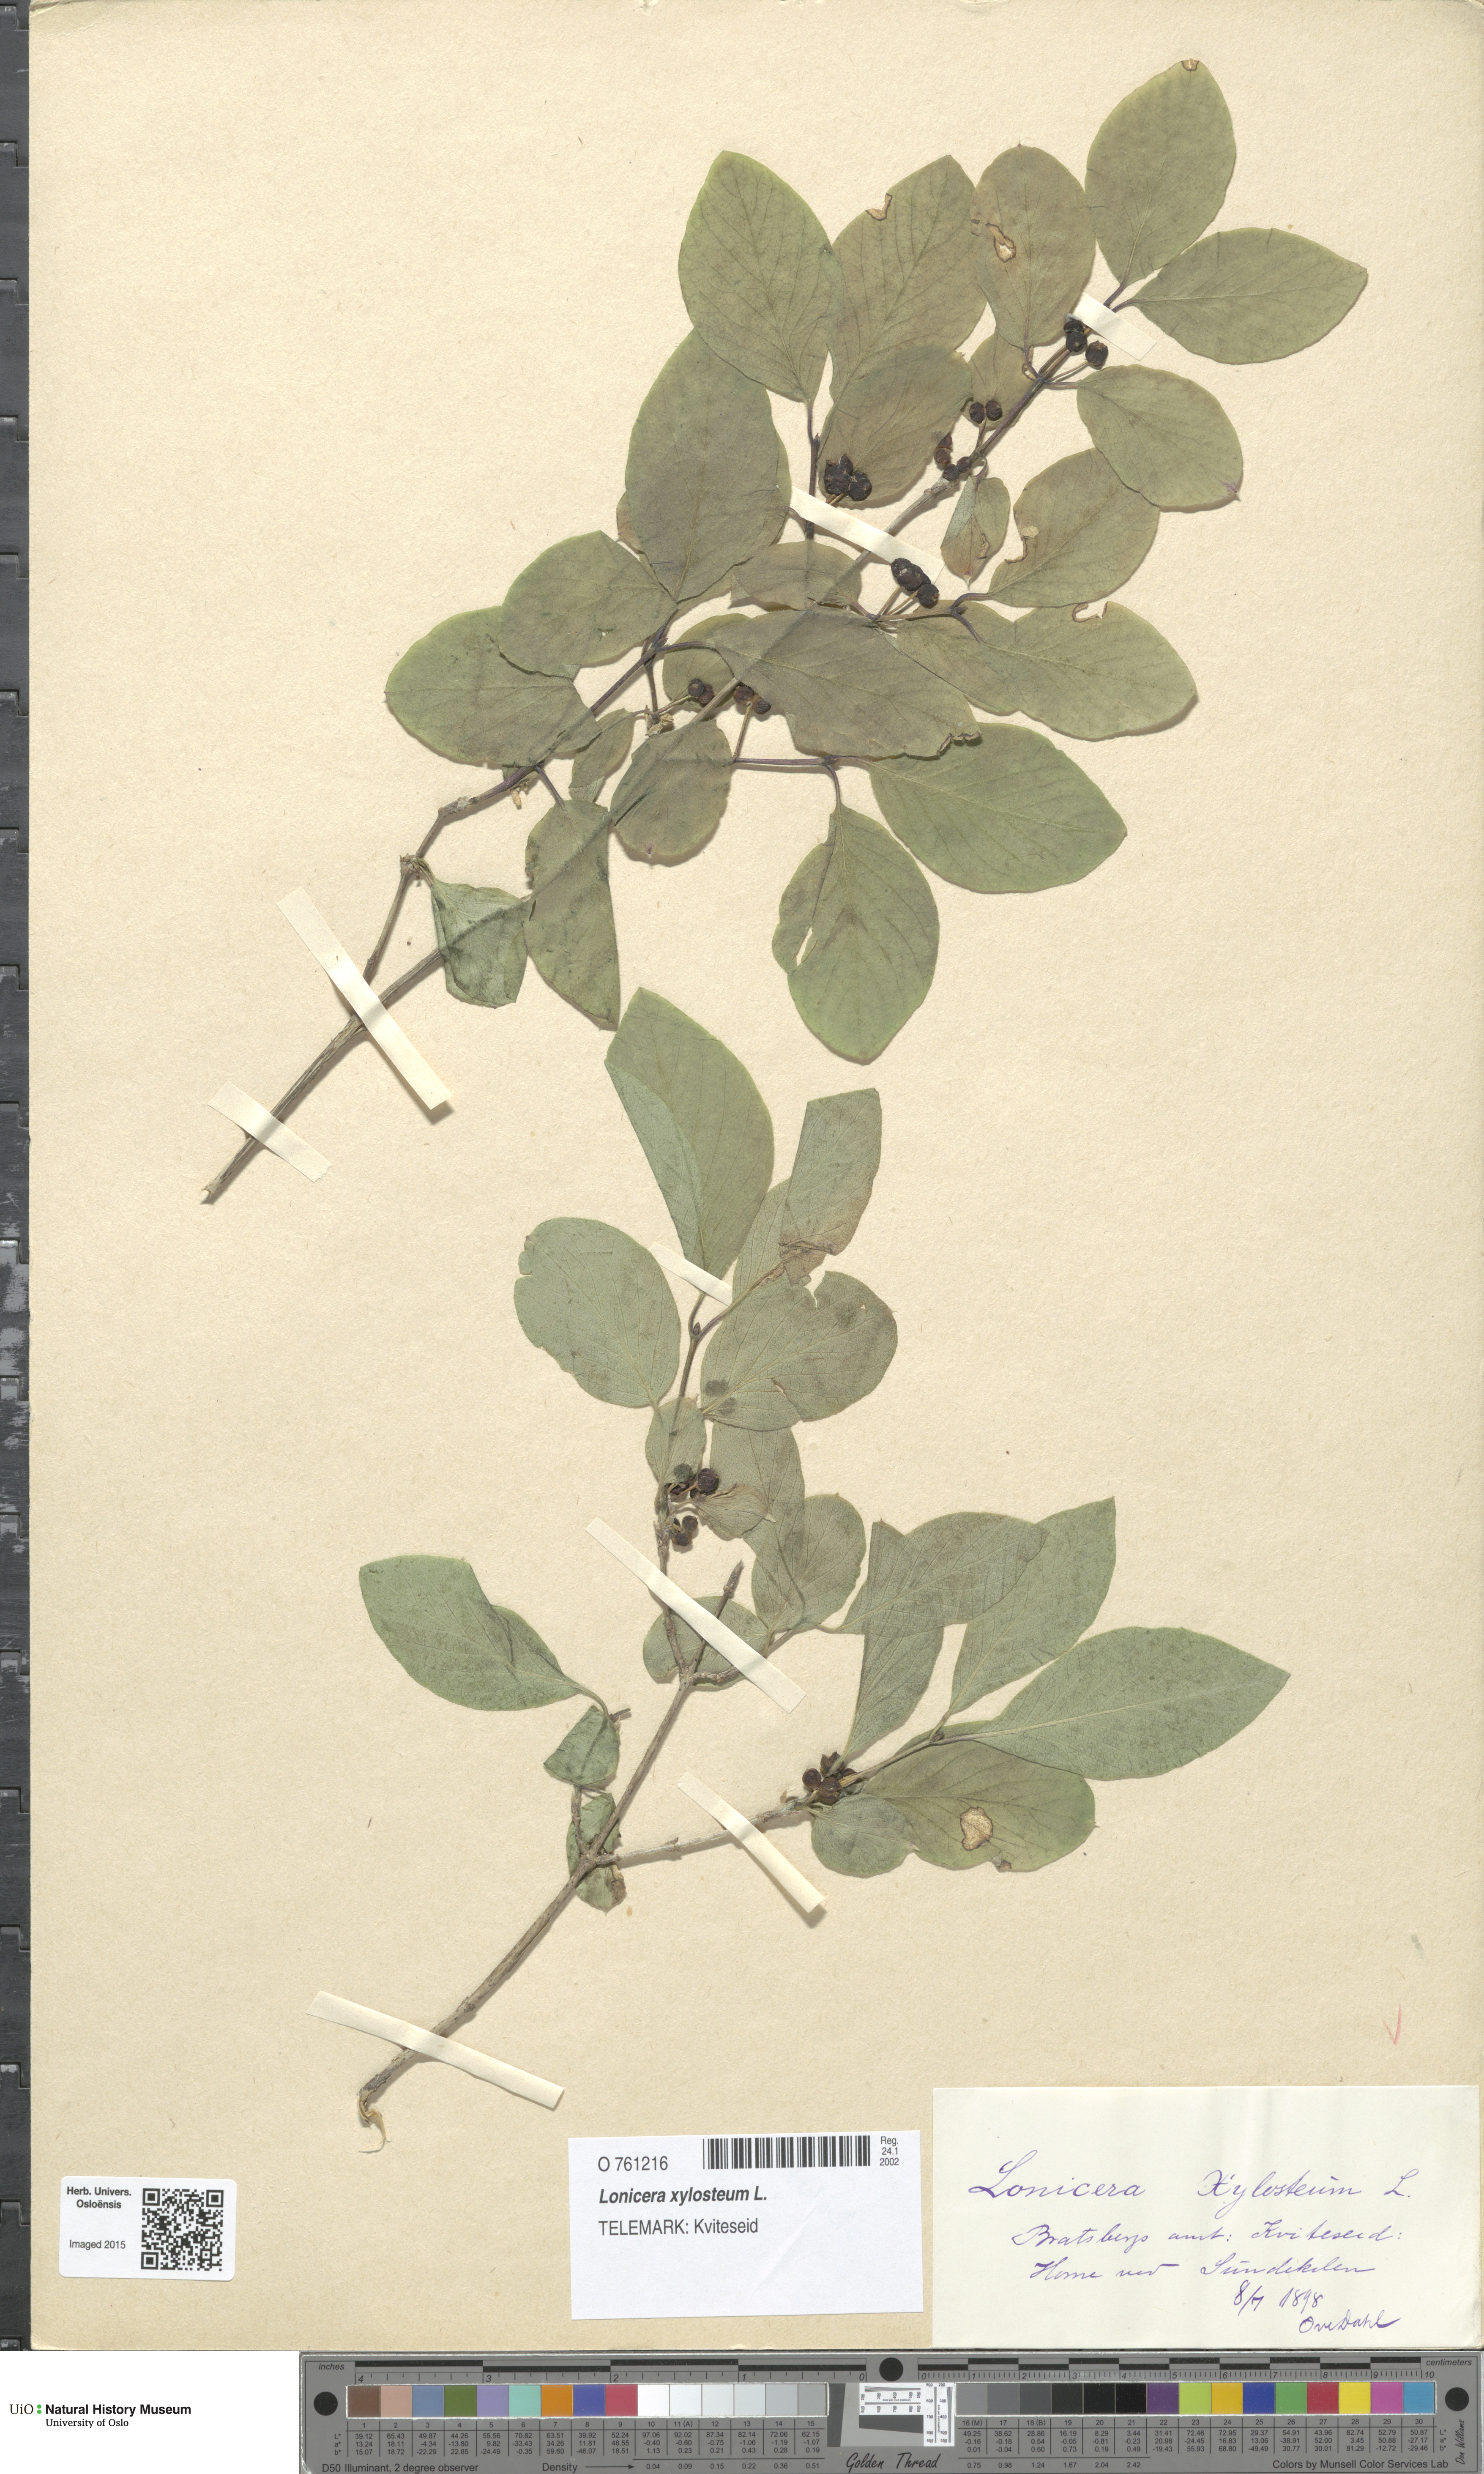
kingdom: Plantae
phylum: Tracheophyta
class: Magnoliopsida
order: Dipsacales
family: Caprifoliaceae
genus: Lonicera
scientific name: Lonicera xylosteum
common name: Fly honeysuckle
